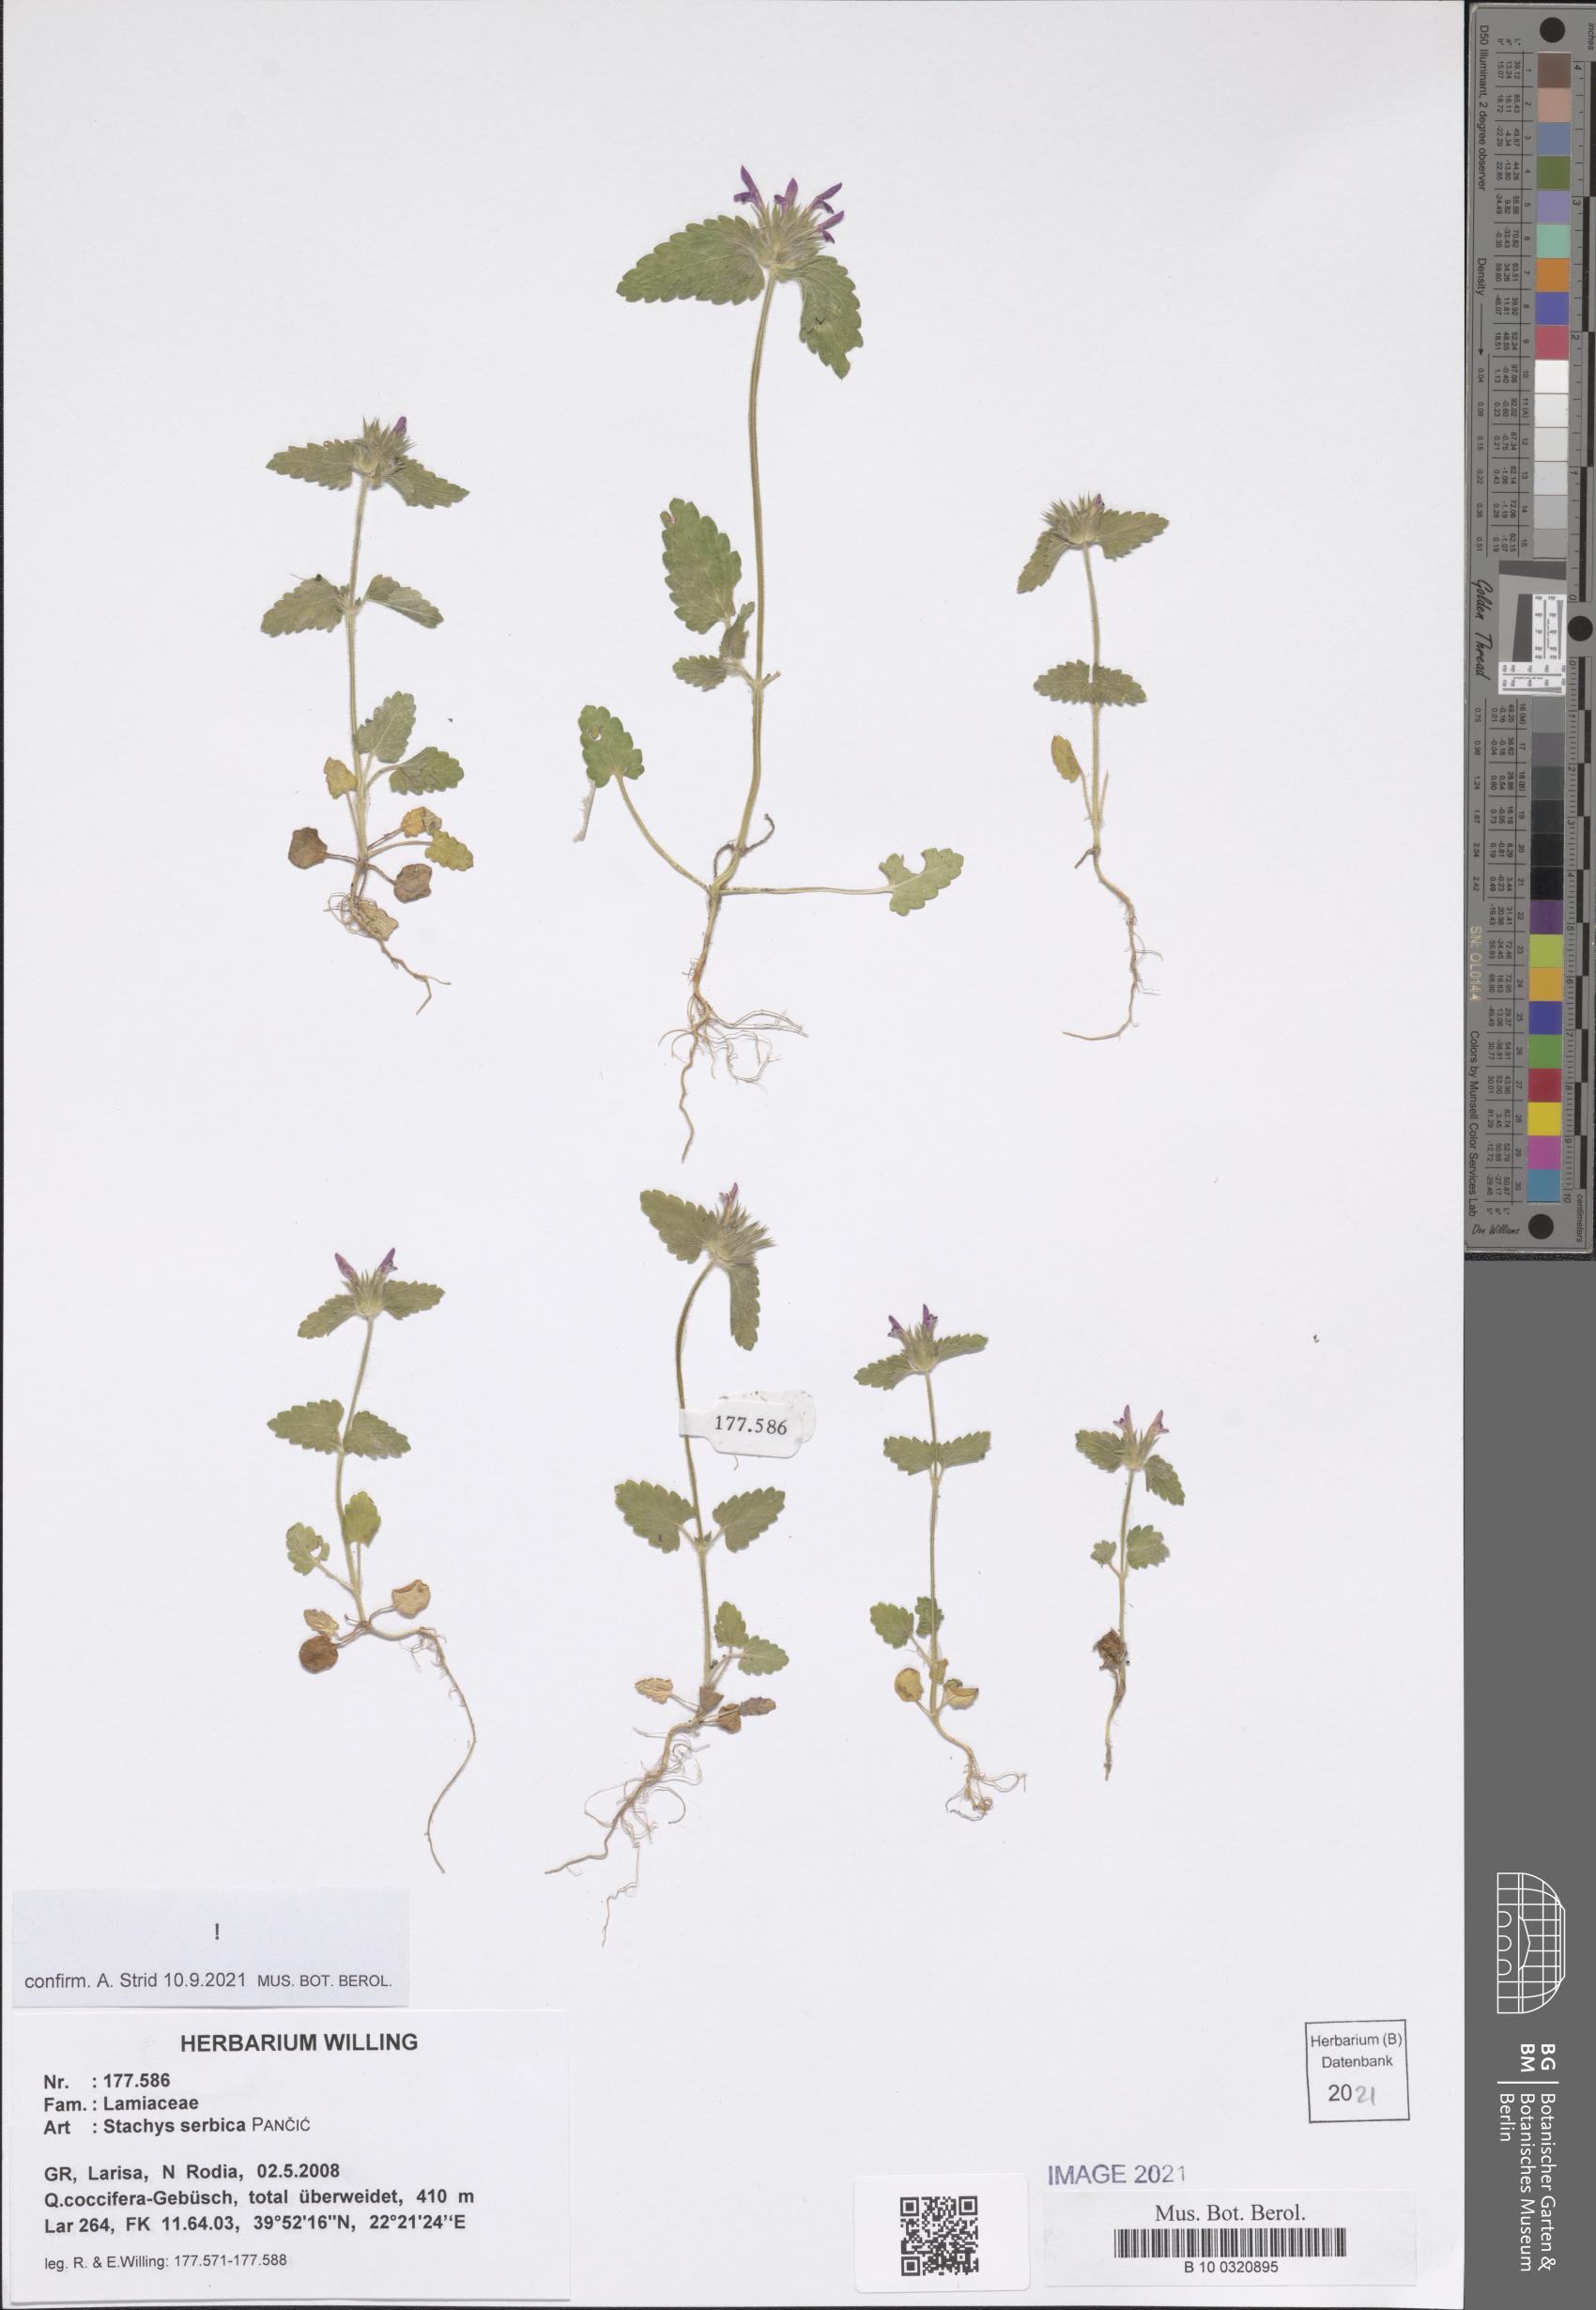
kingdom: Plantae
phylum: Tracheophyta
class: Magnoliopsida
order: Lamiales
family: Lamiaceae
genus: Stachys
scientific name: Stachys serbica
